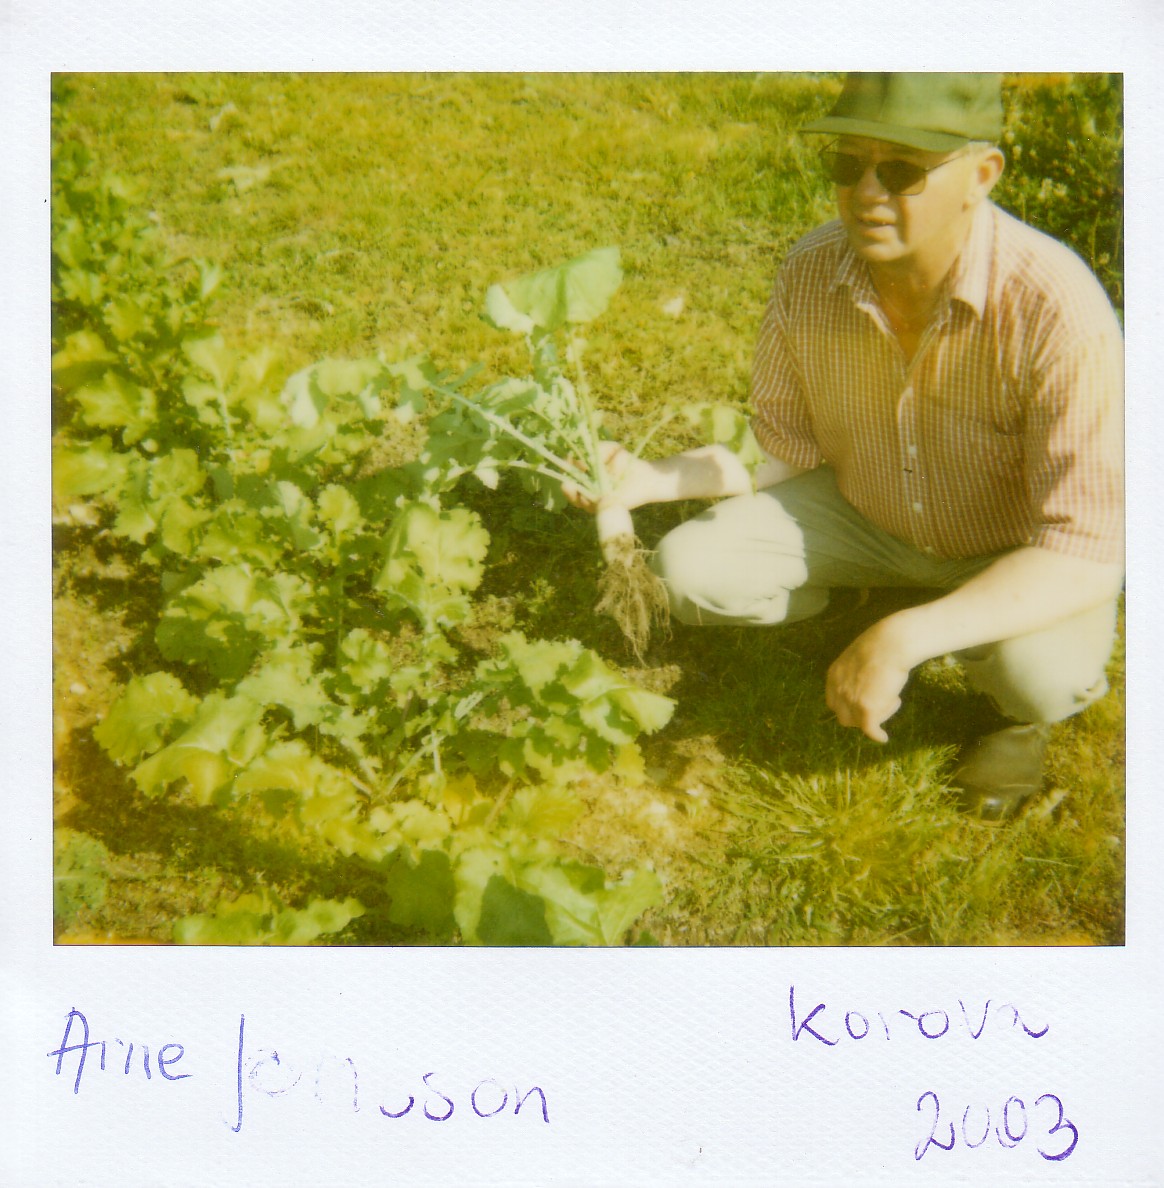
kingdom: Plantae
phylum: Tracheophyta
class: Magnoliopsida
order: Brassicales
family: Brassicaceae
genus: Brassica
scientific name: Brassica rapa
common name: Field mustard
